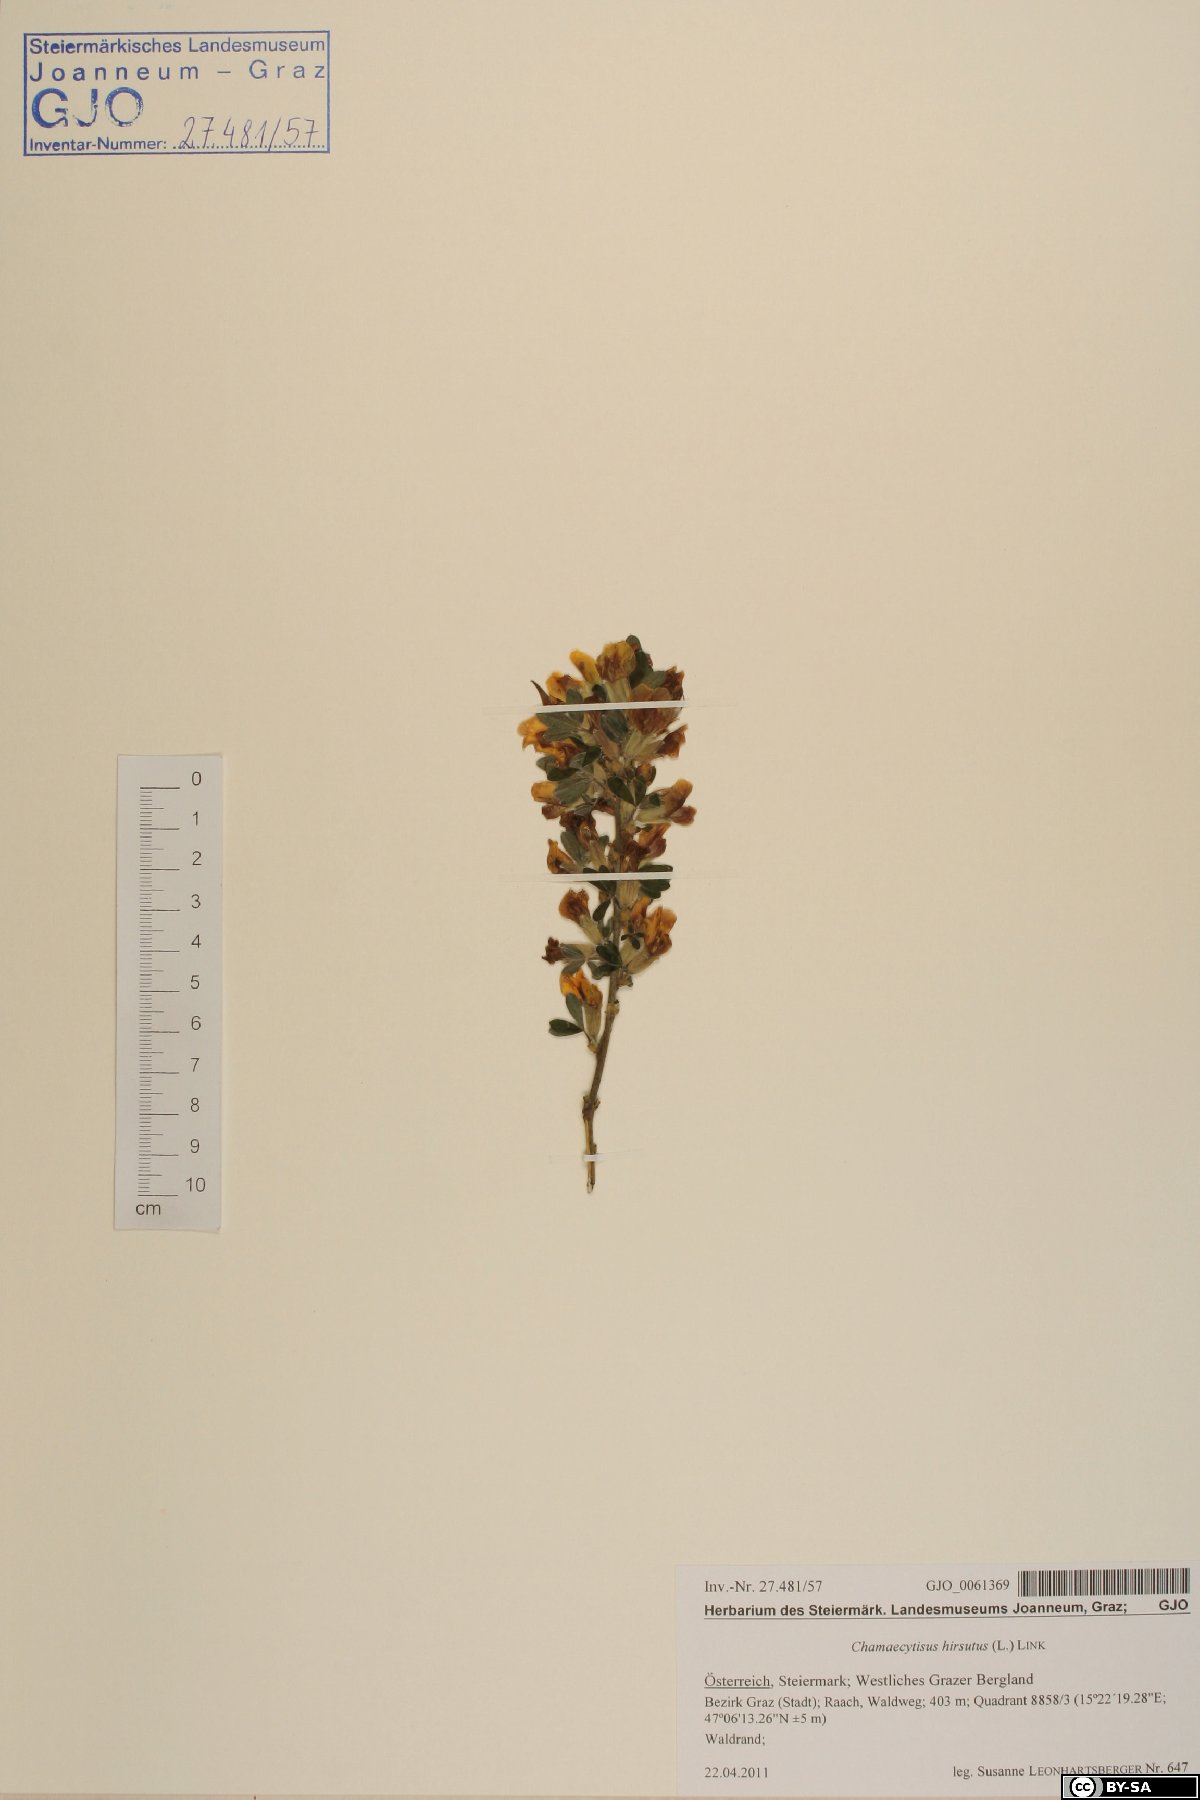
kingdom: Plantae
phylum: Tracheophyta
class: Magnoliopsida
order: Fabales
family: Fabaceae
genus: Chamaecytisus
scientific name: Chamaecytisus hirsutus
